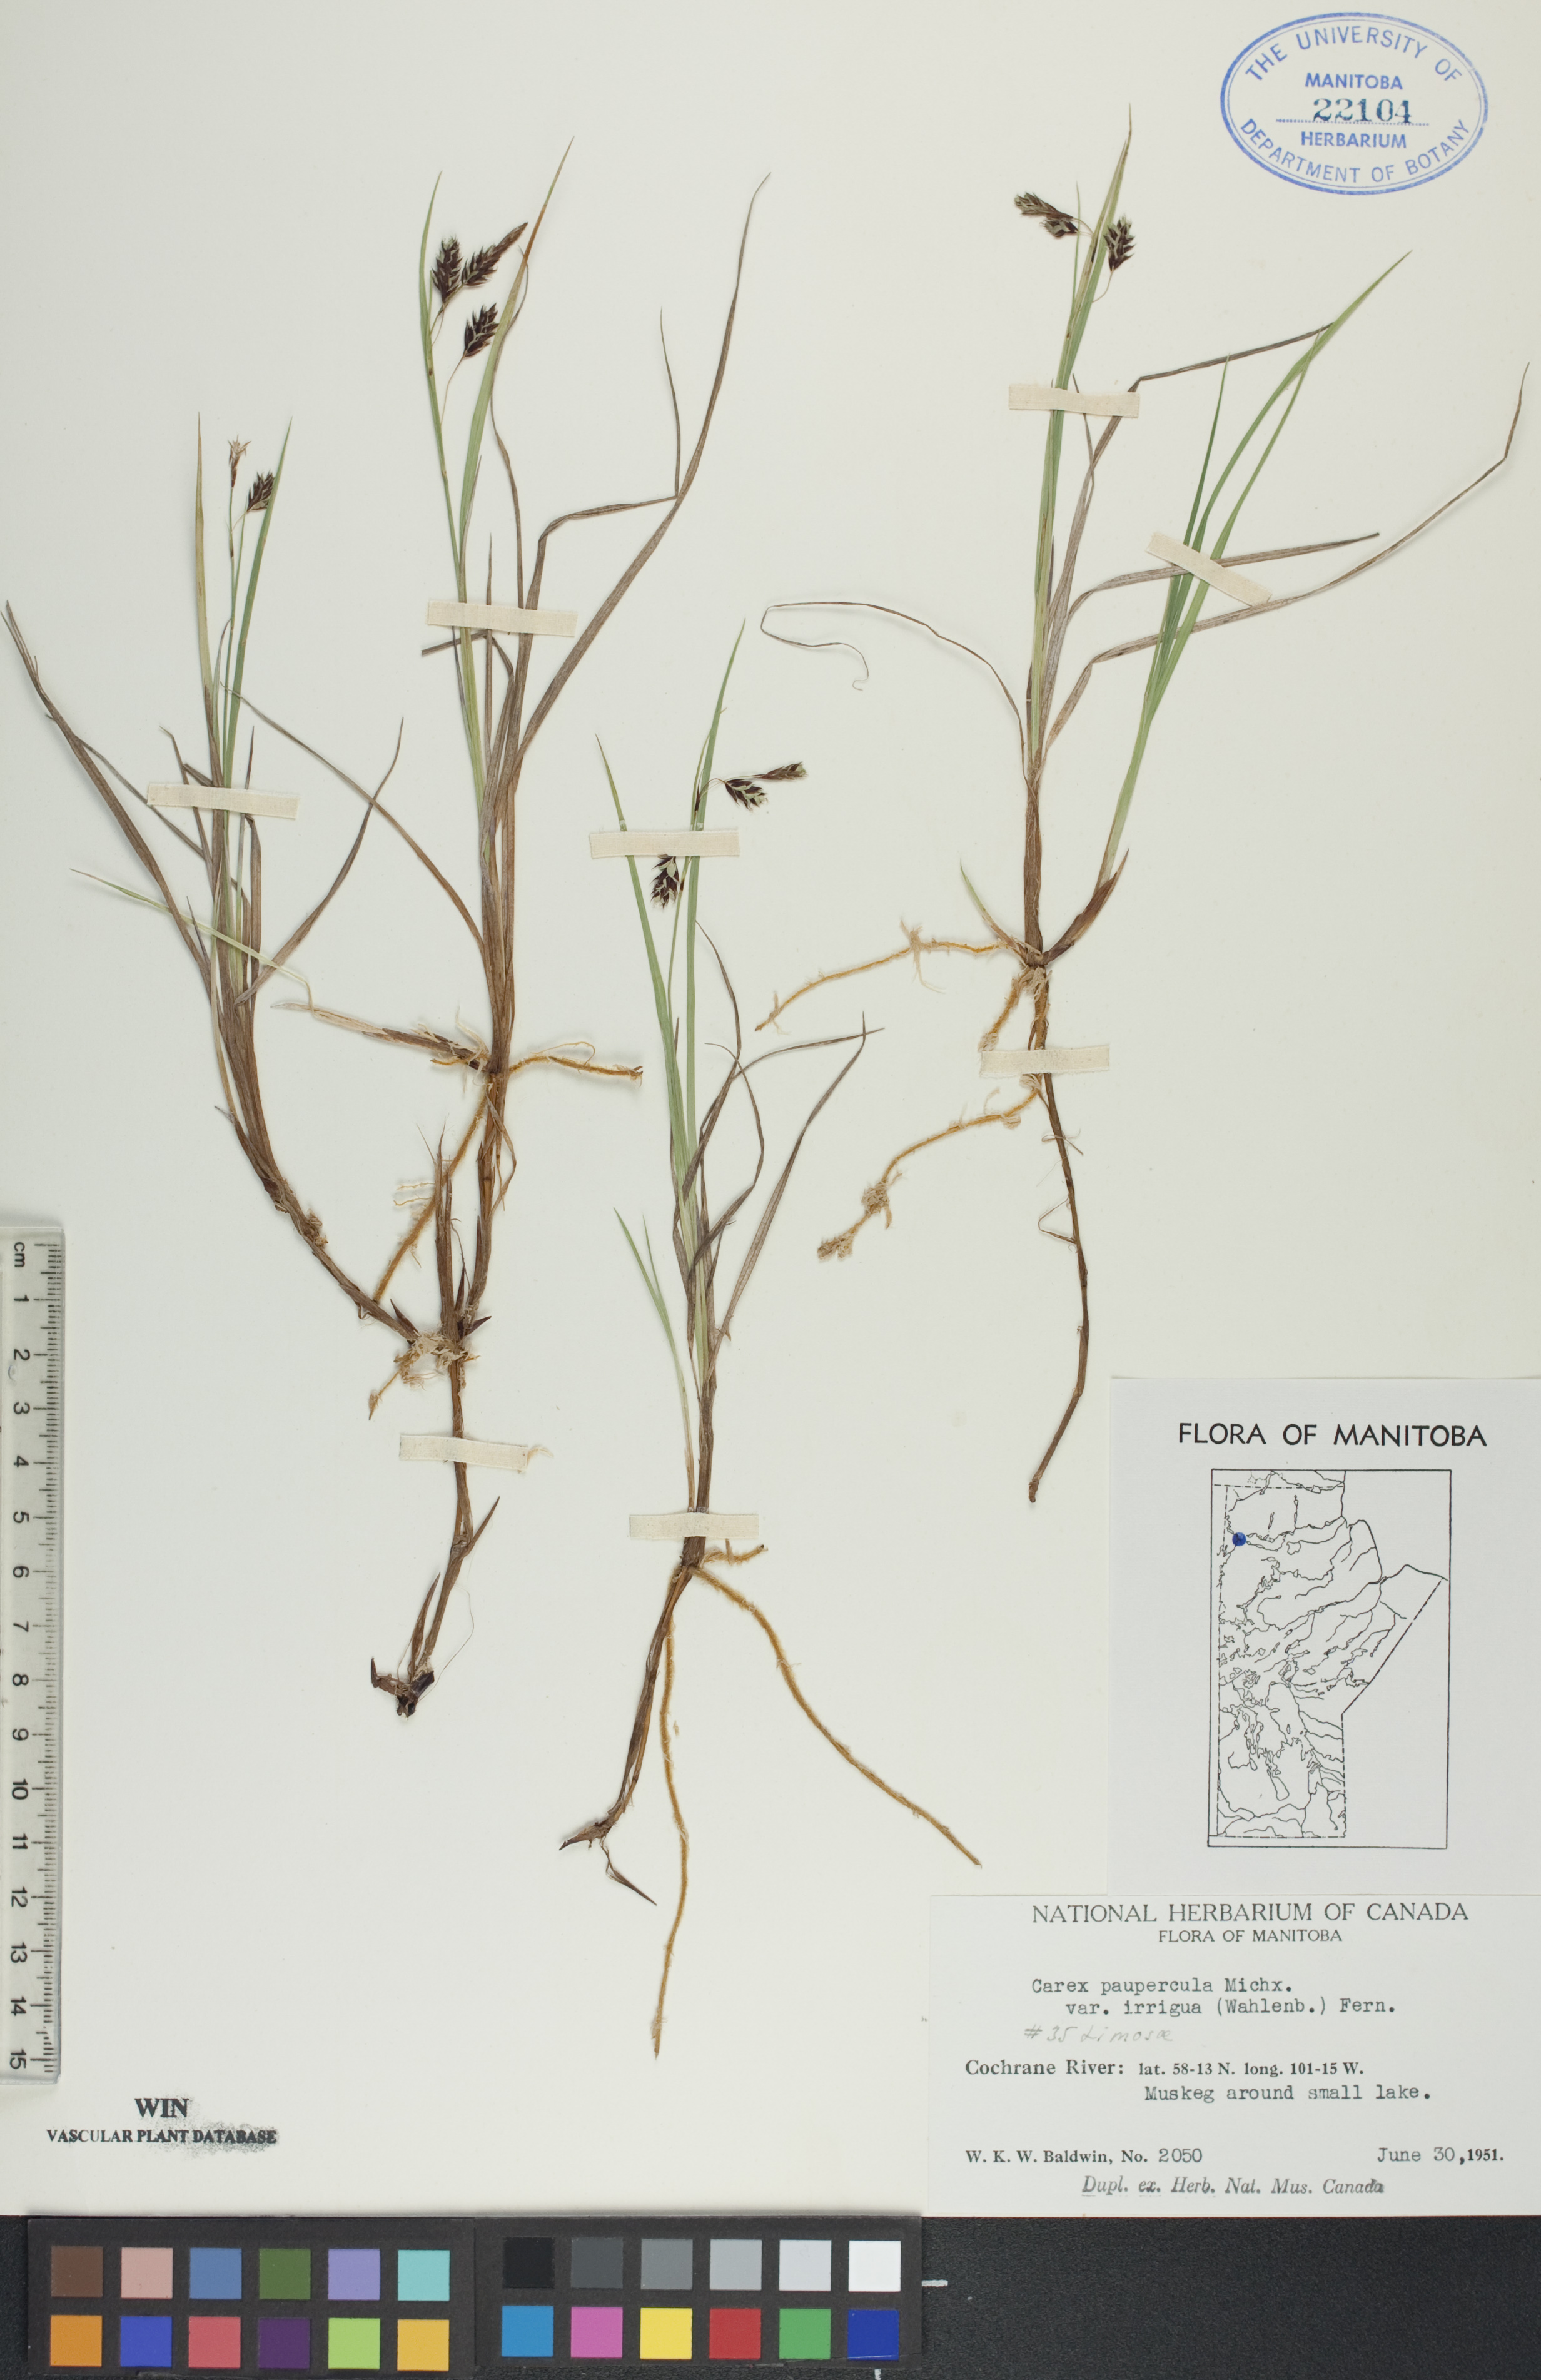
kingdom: Plantae
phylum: Tracheophyta
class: Liliopsida
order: Poales
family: Cyperaceae
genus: Carex
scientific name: Carex magellanica
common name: Bog sedge
